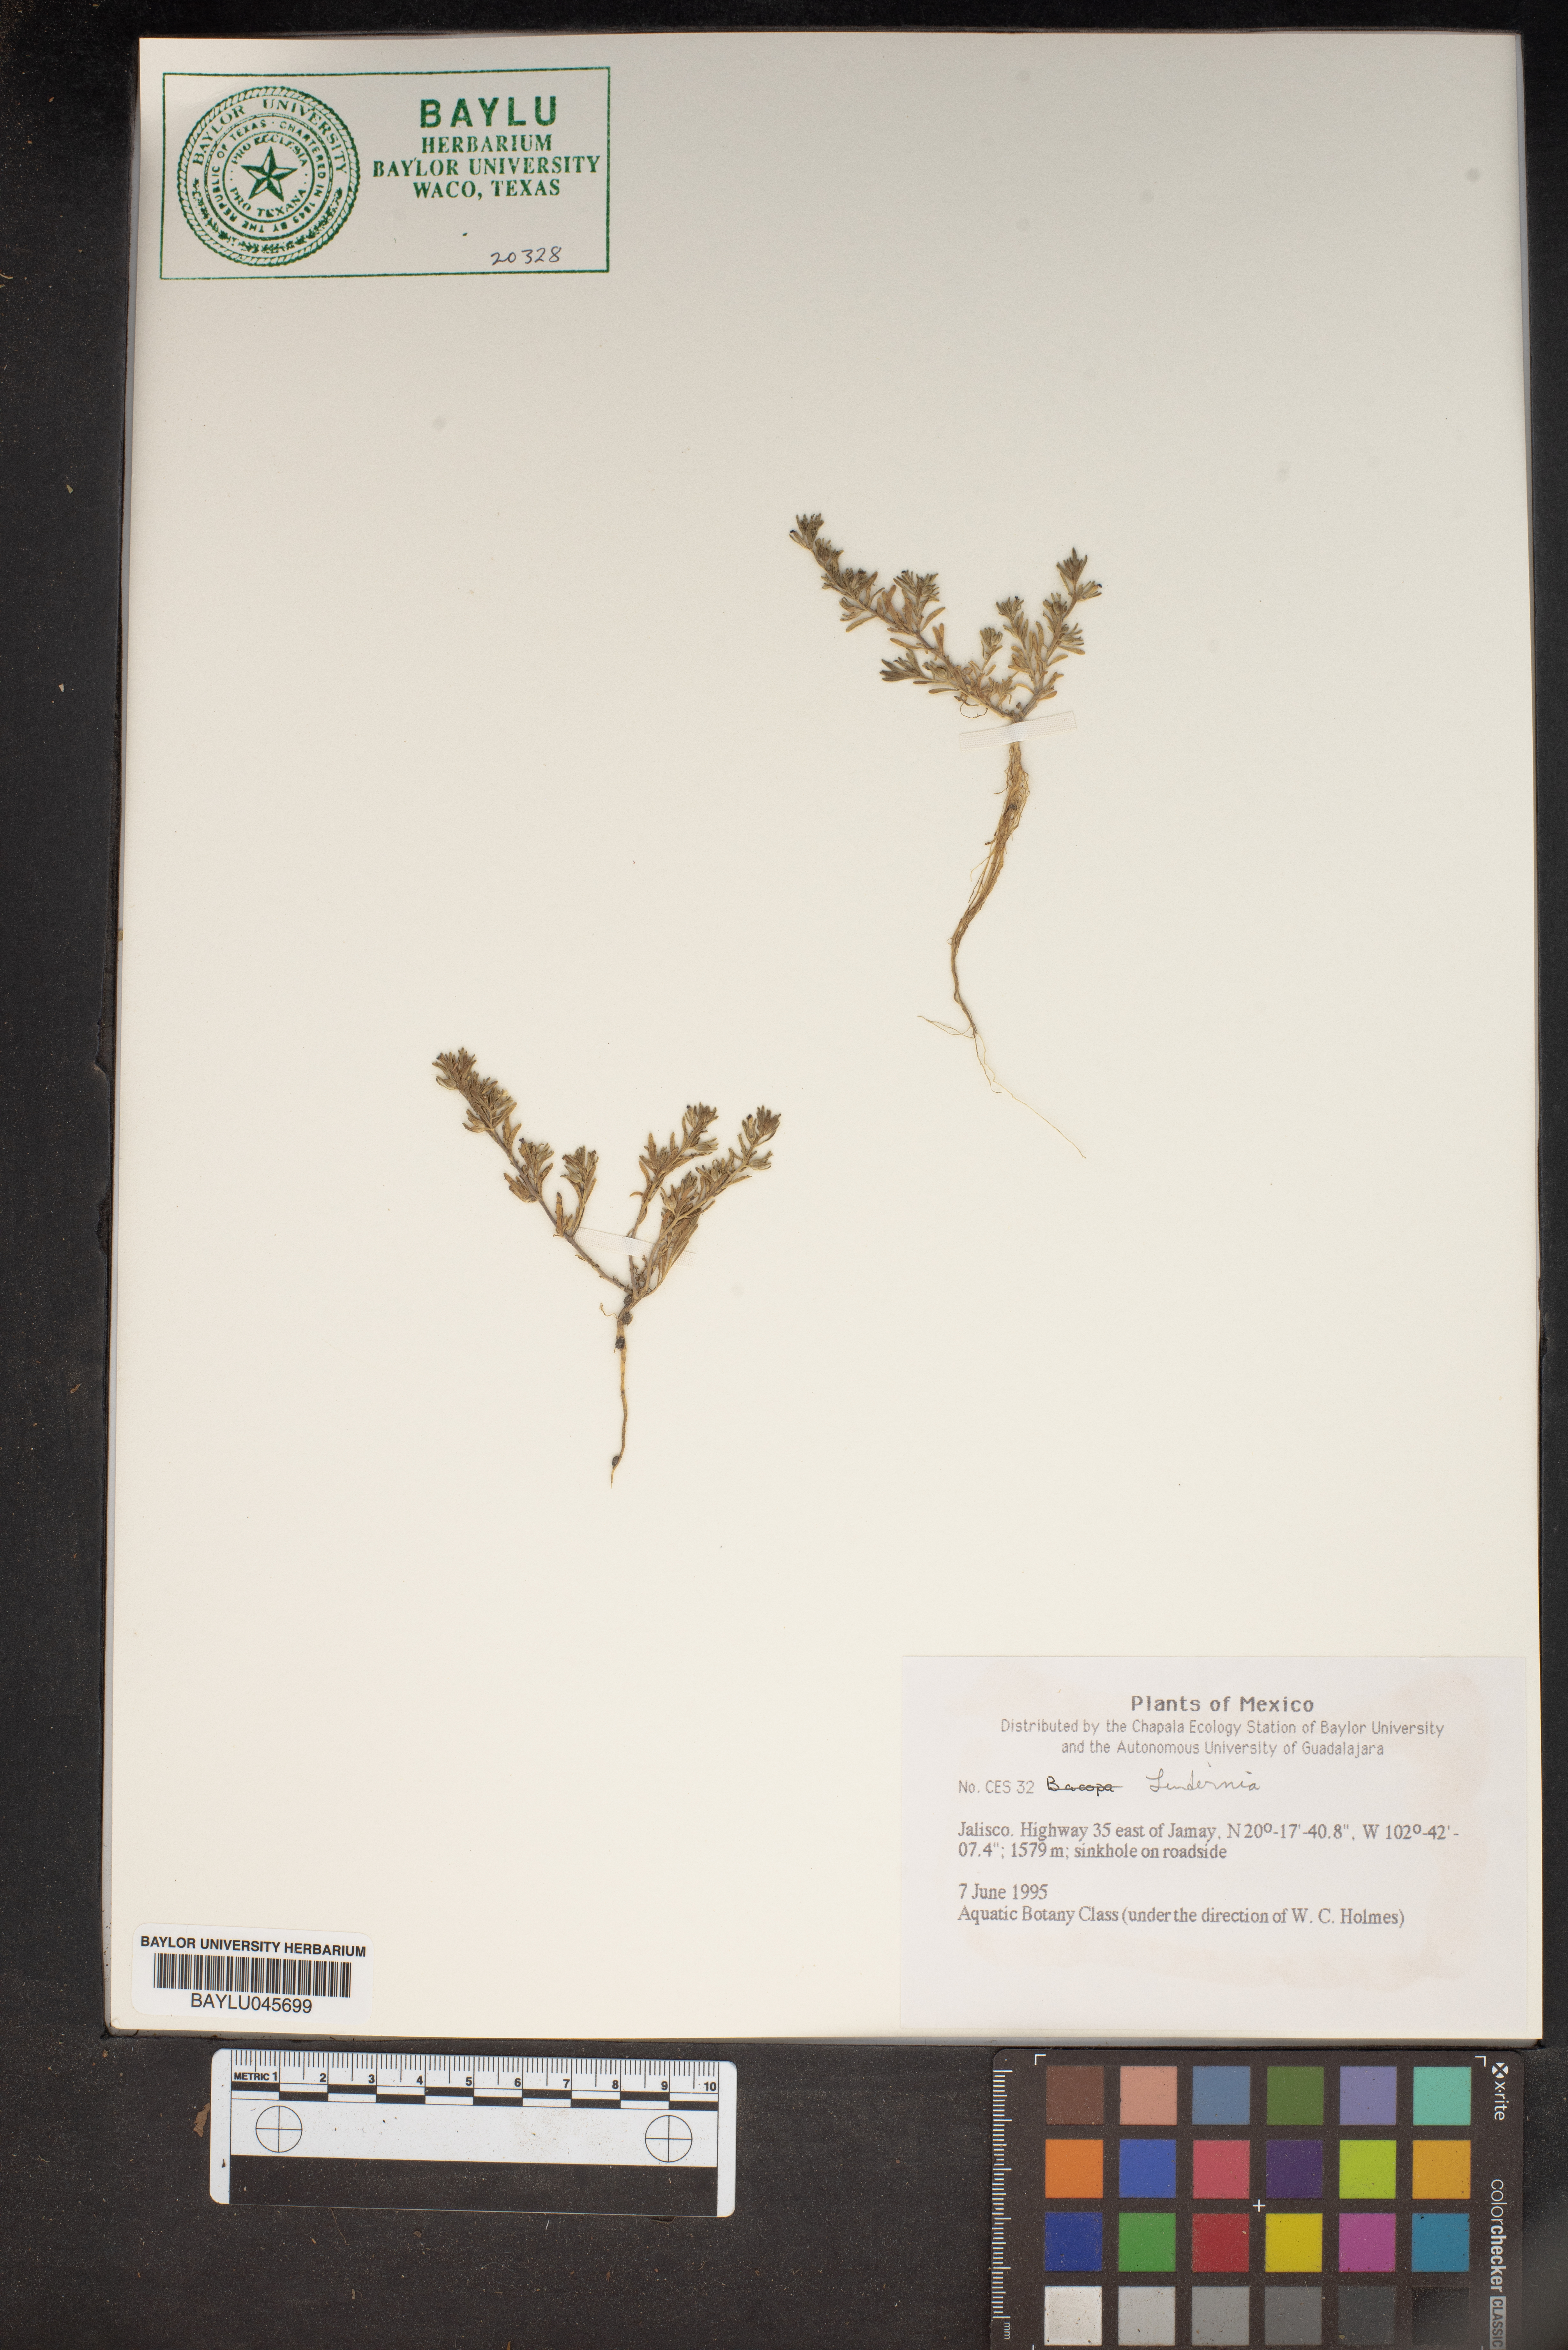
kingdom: Plantae
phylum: Tracheophyta
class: Magnoliopsida
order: Lamiales
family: Linderniaceae
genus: Lindernia
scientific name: Lindernia
